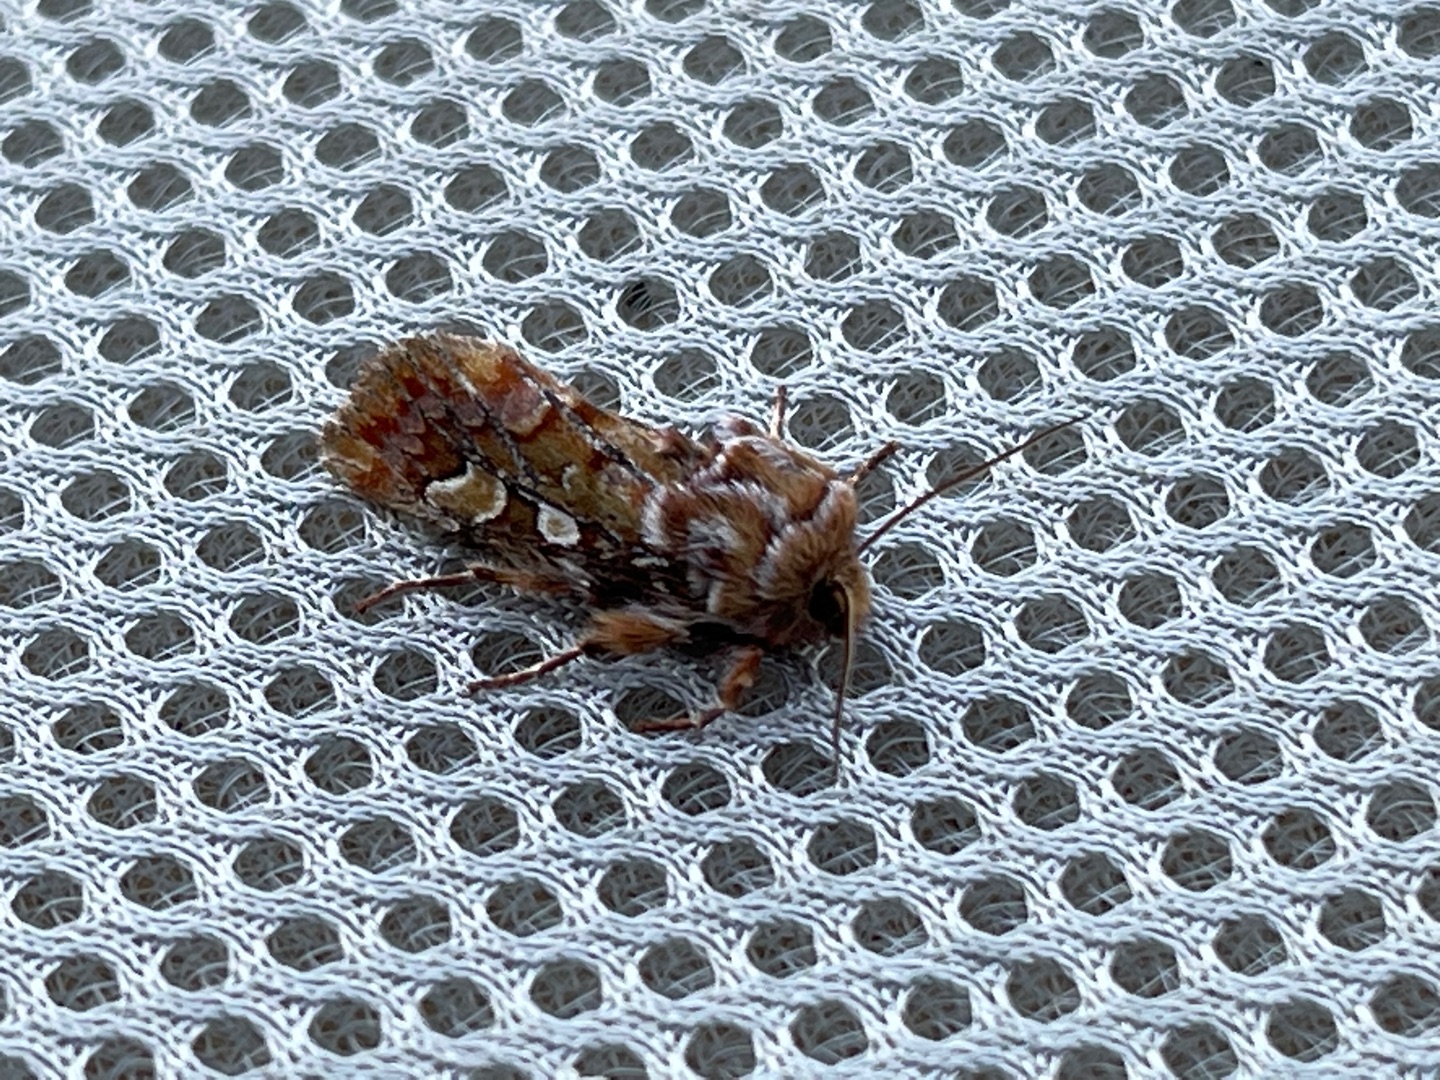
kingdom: Animalia
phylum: Arthropoda
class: Insecta
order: Lepidoptera
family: Noctuidae
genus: Panolis
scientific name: Panolis flammea
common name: Fyrreugle
